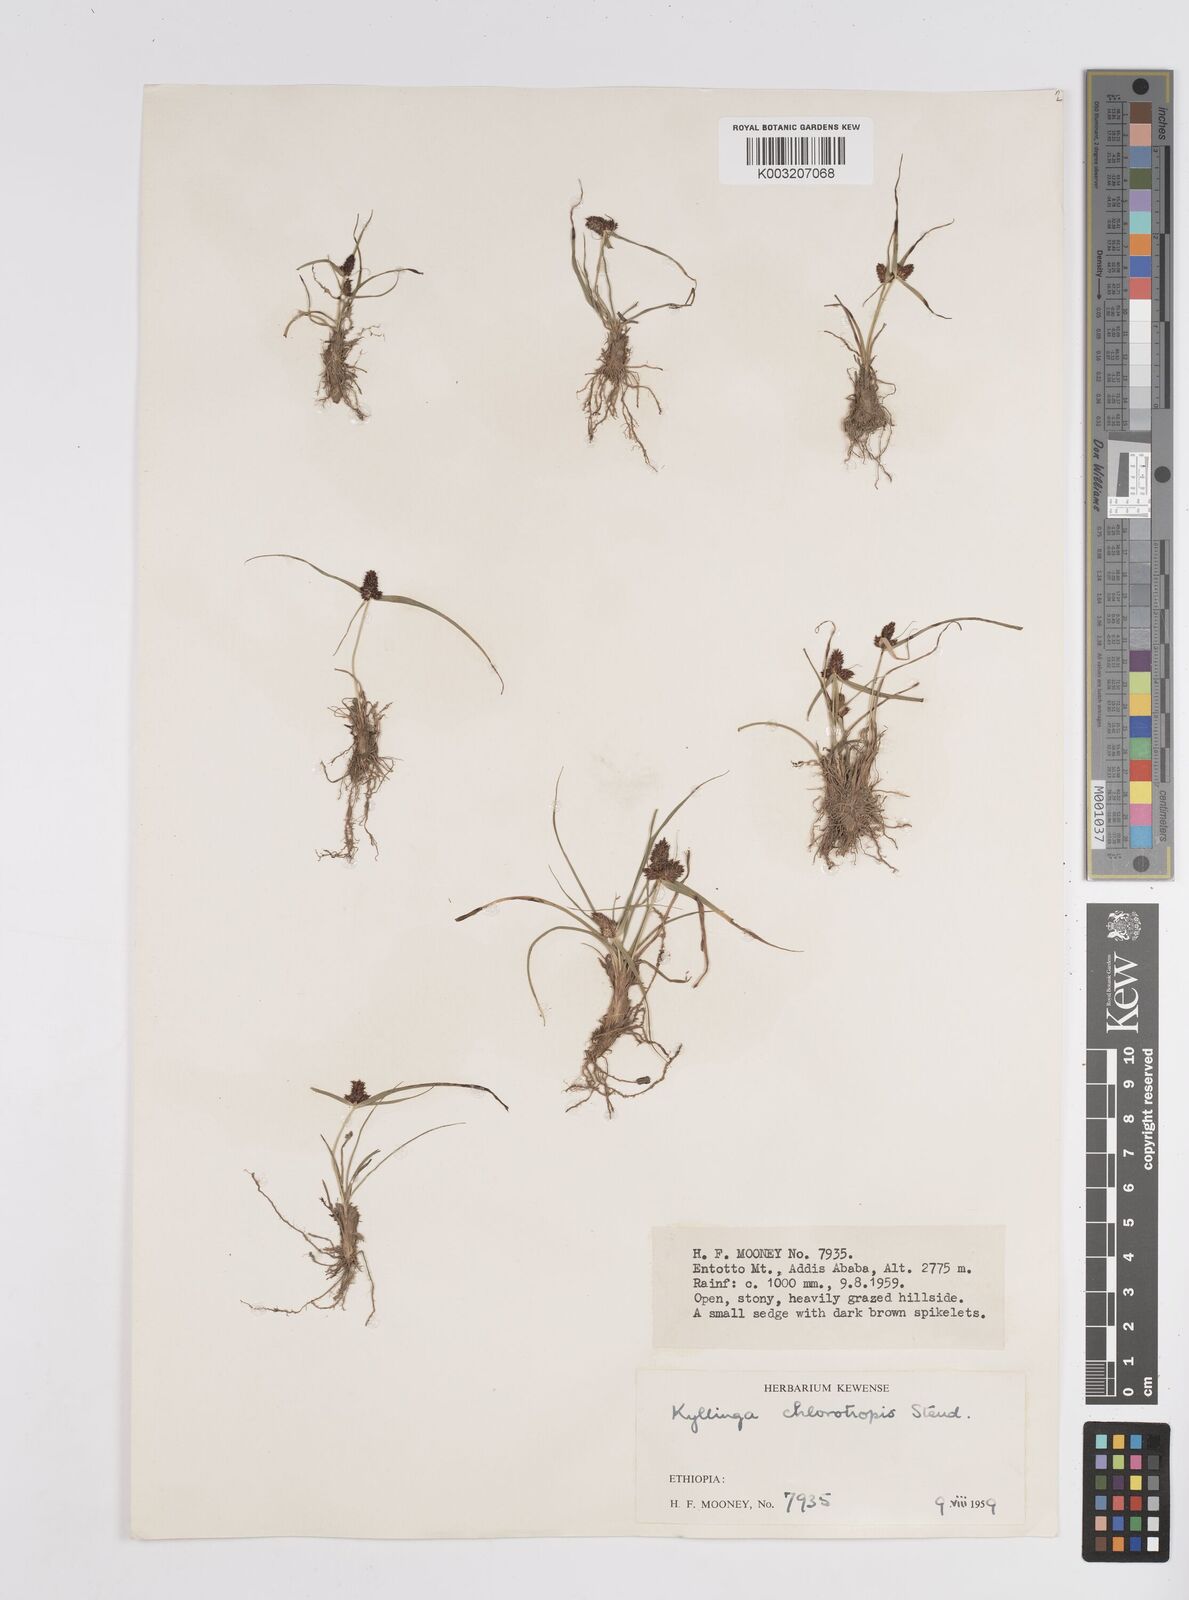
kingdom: Plantae
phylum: Tracheophyta
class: Liliopsida
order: Poales
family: Cyperaceae
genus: Cyperus
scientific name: Cyperus chlorotropis
